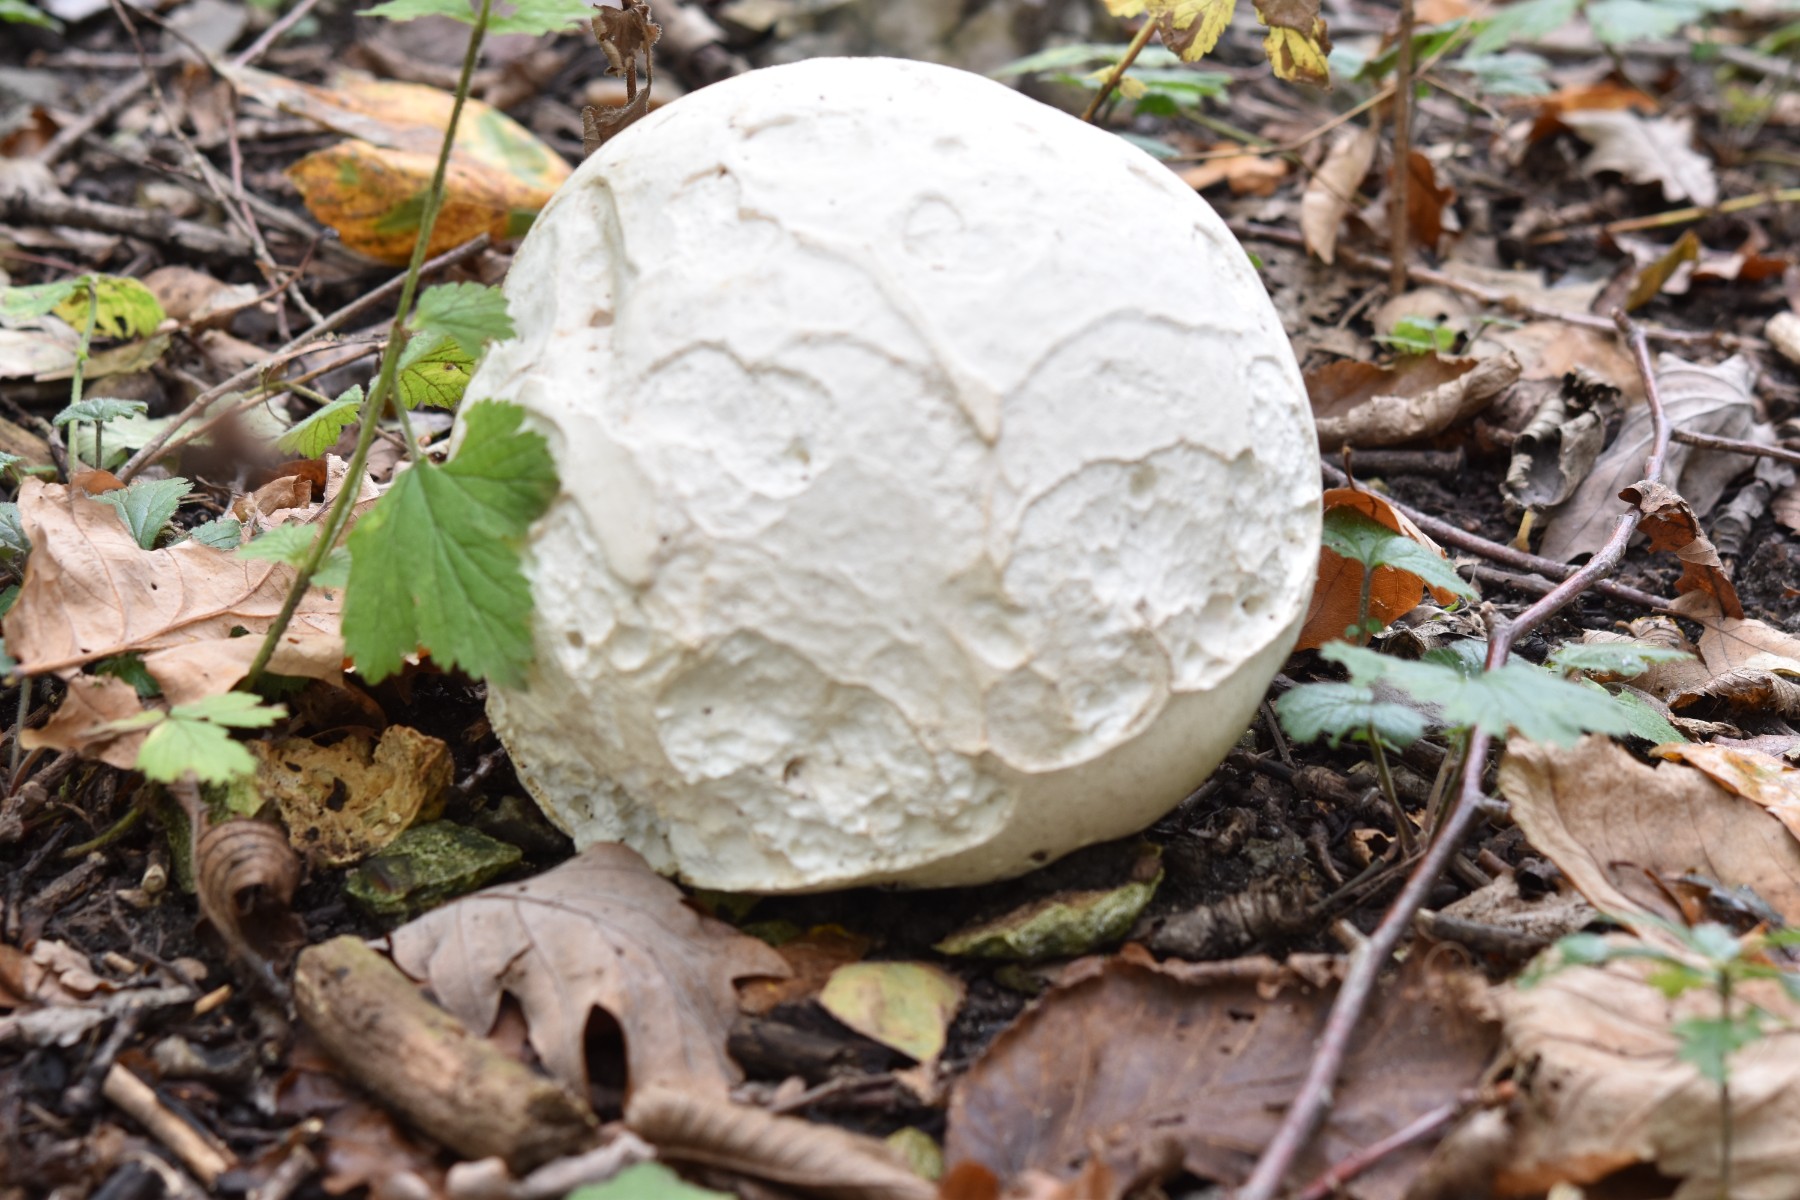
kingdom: Fungi
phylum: Basidiomycota
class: Agaricomycetes
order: Agaricales
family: Lycoperdaceae
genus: Calvatia
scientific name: Calvatia gigantea
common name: kæmpestøvbold
